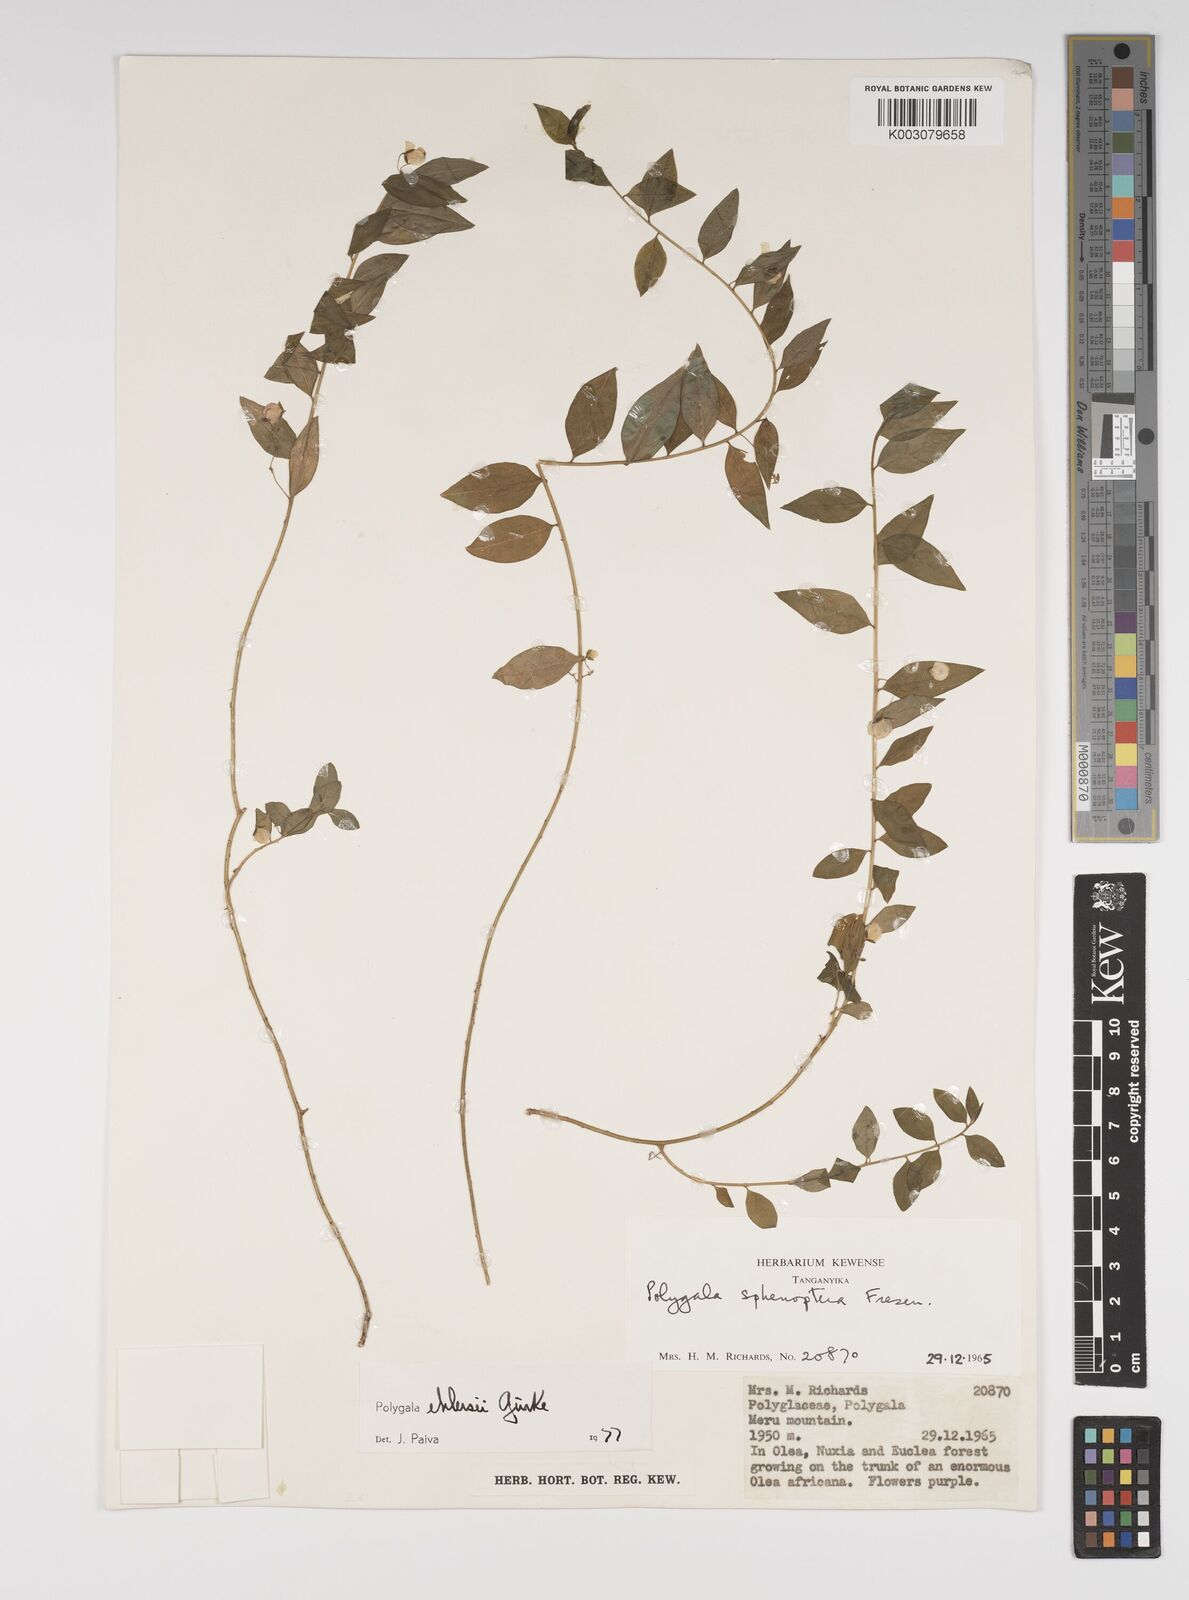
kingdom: Plantae
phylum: Tracheophyta
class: Magnoliopsida
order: Fabales
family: Polygalaceae
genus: Polygala
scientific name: Polygala ehlersii
